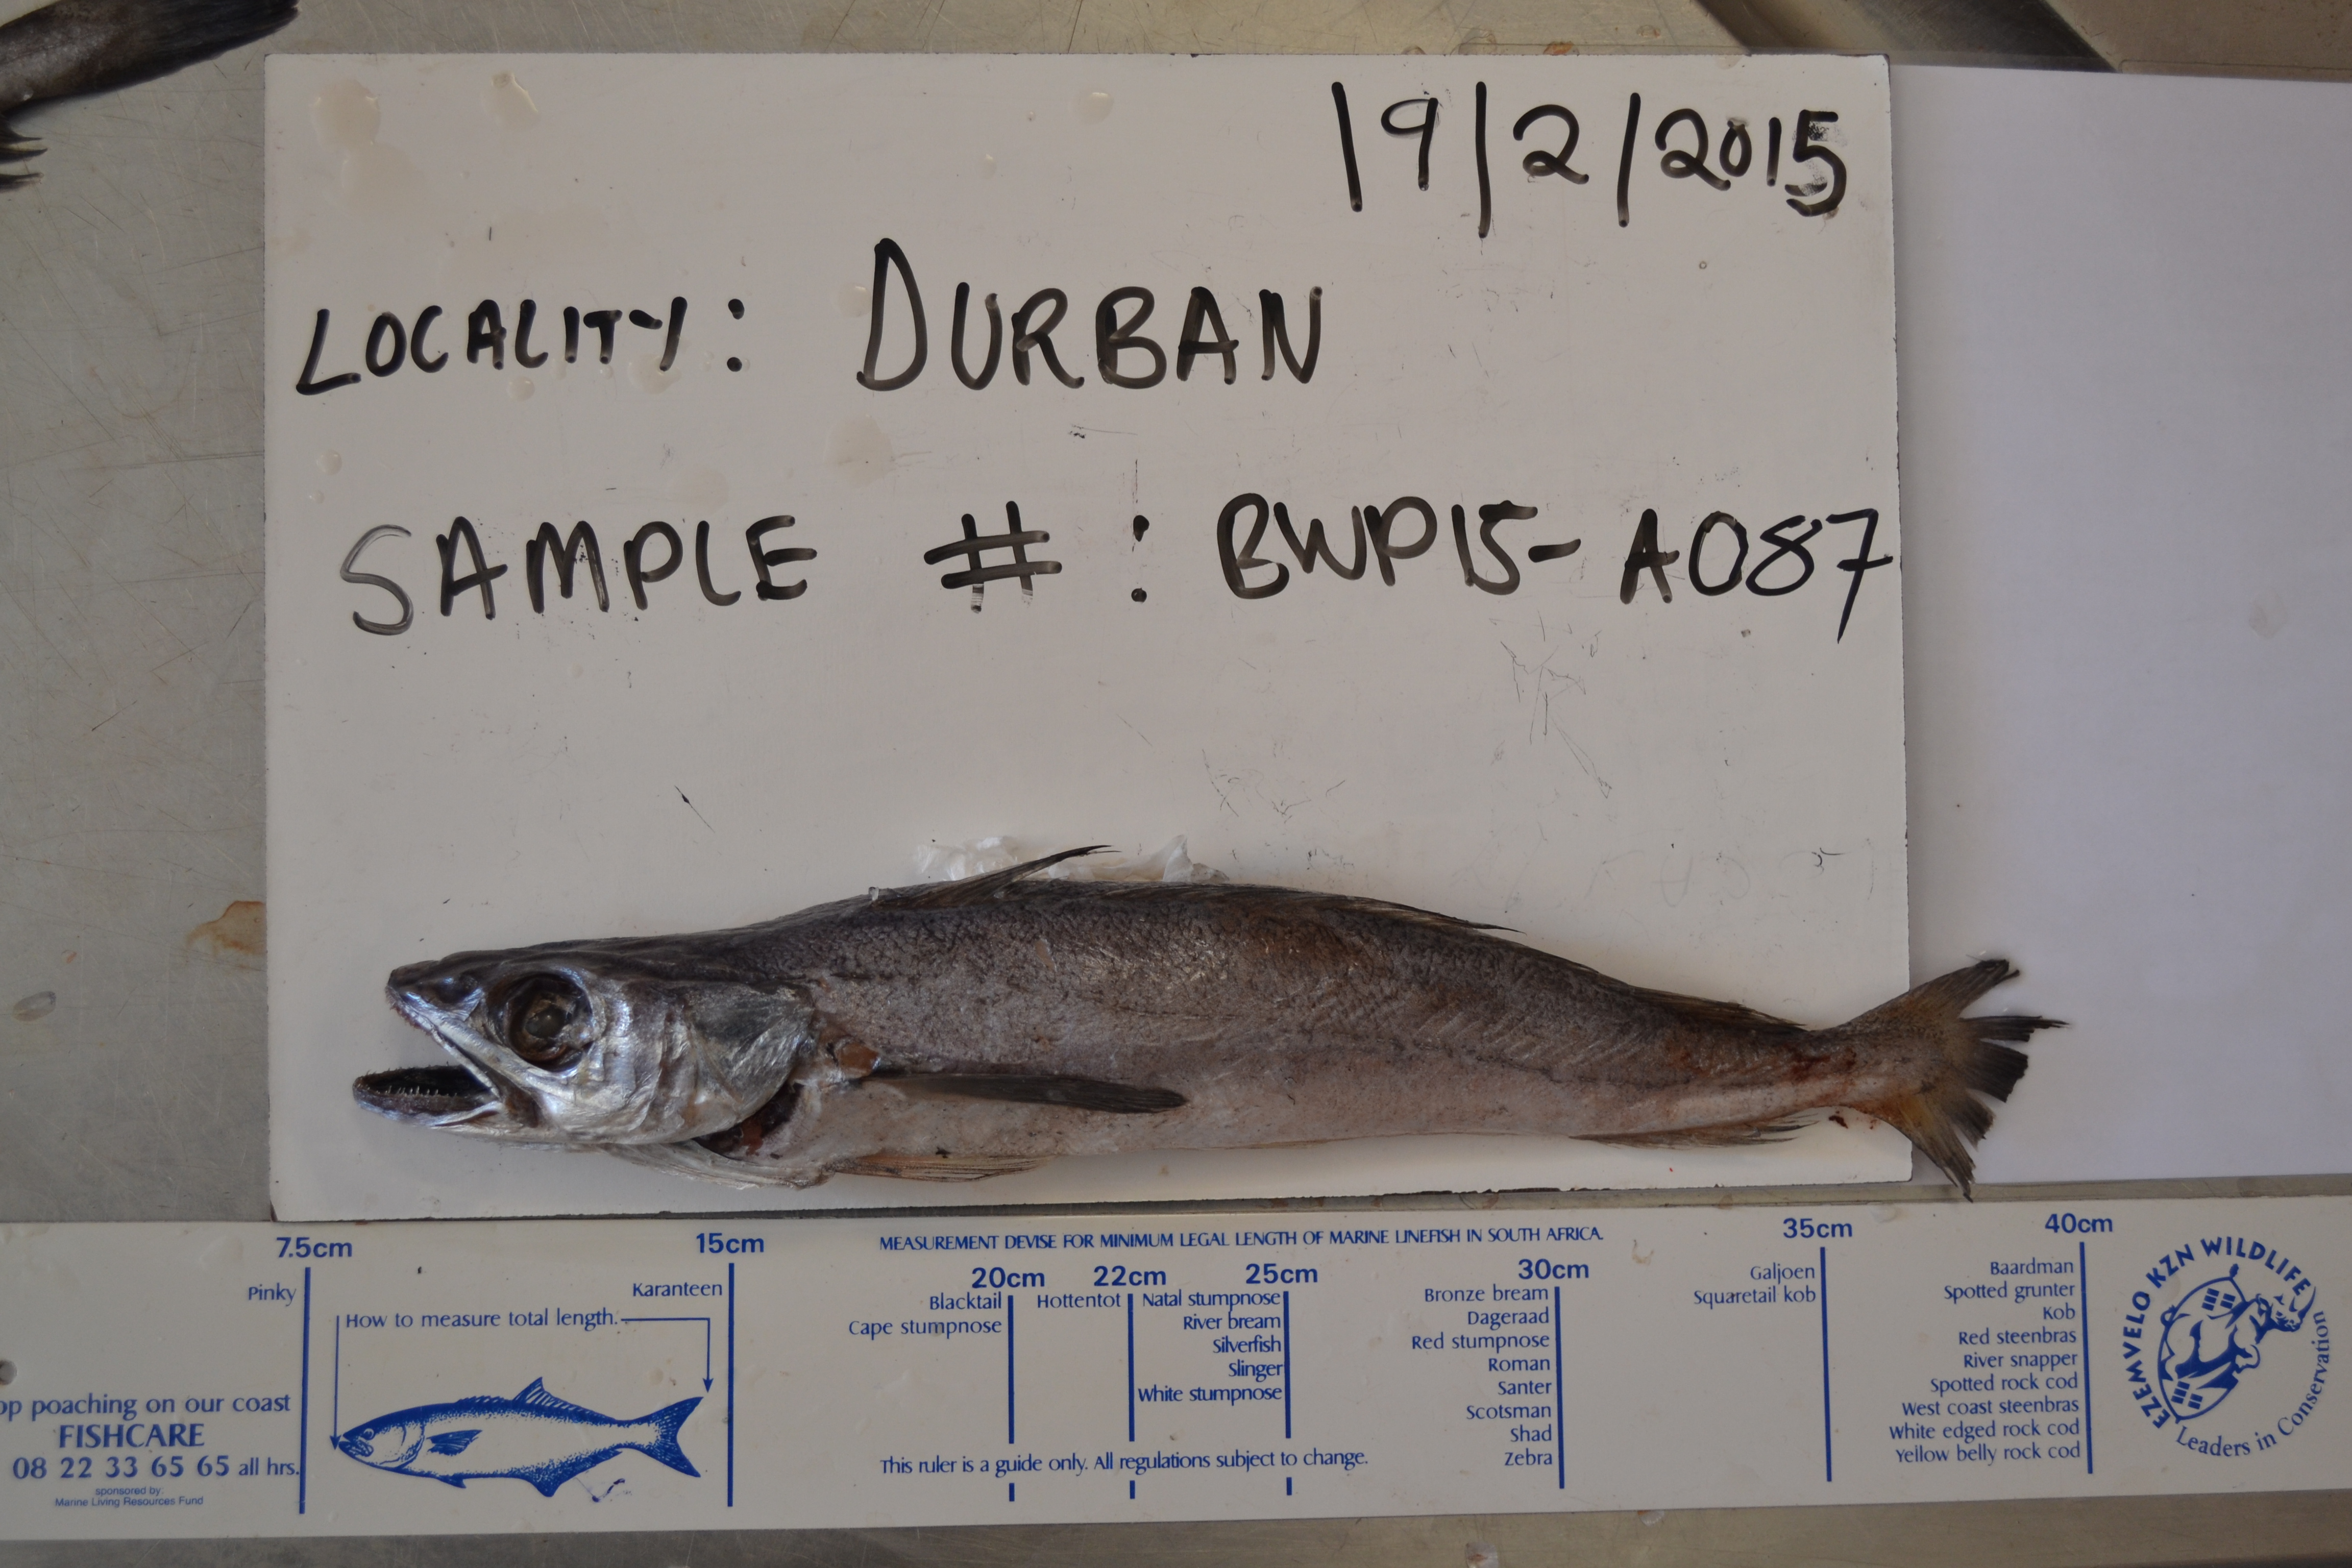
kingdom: Animalia
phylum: Chordata
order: Gadiformes
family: Merlucciidae
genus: Merluccius
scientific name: Merluccius capensis
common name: Cape hake
